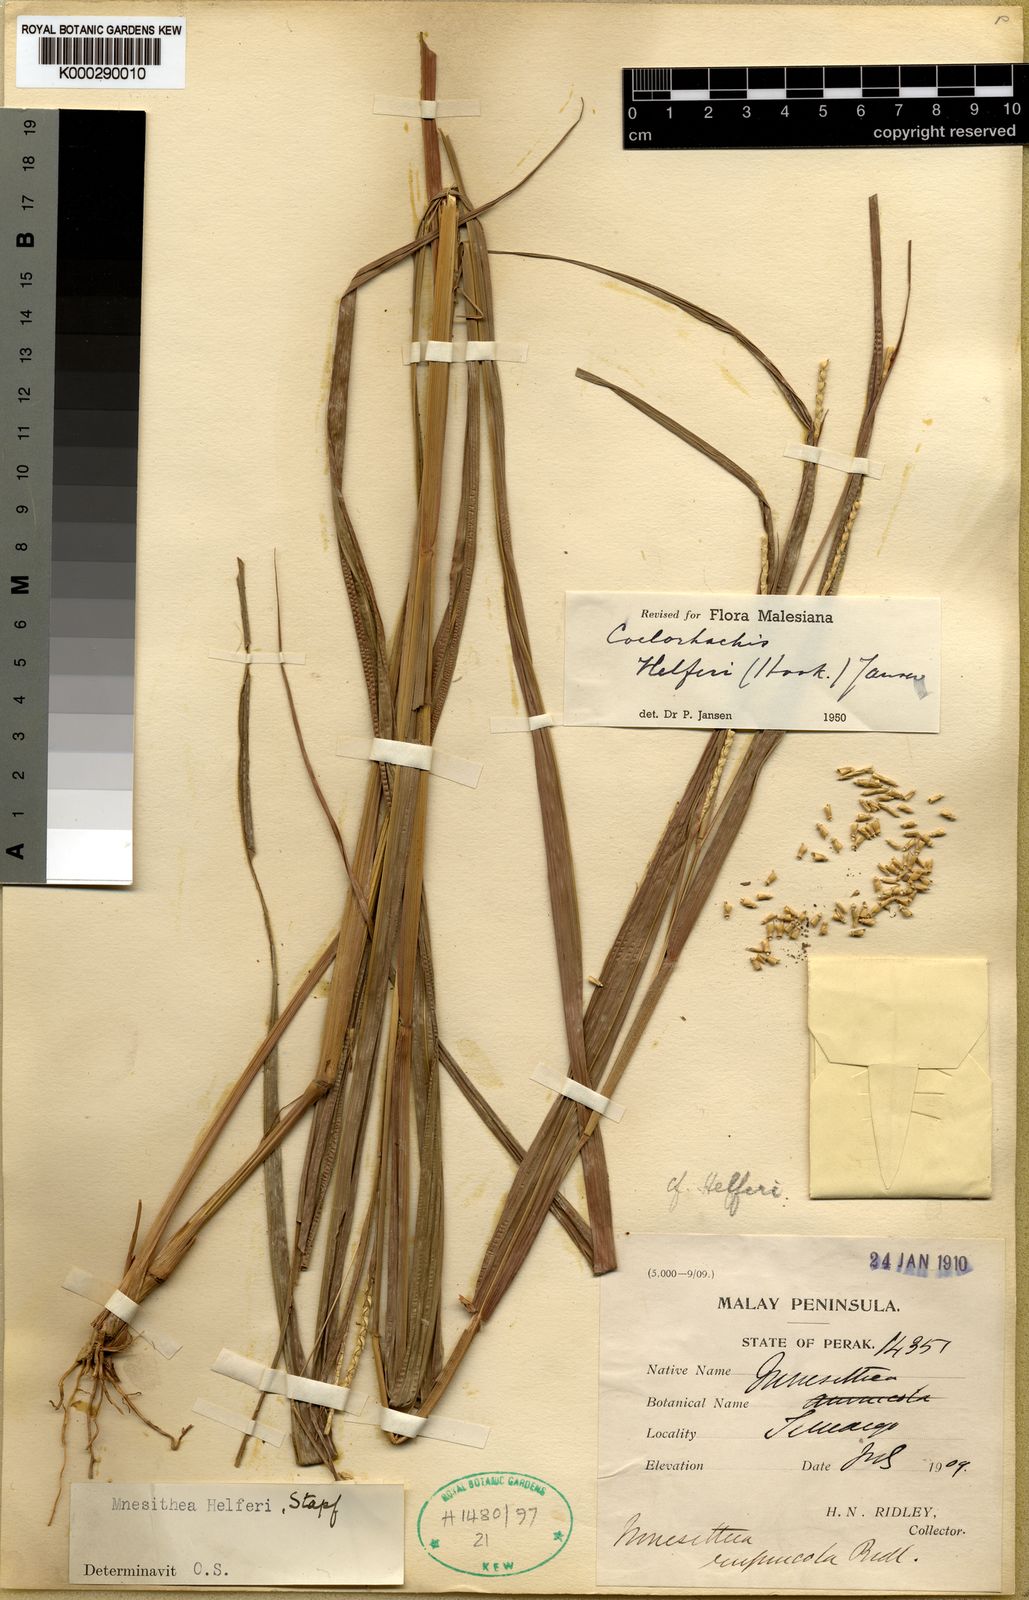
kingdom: Plantae
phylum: Tracheophyta
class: Liliopsida
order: Poales
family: Poaceae
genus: Rottboellia
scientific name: Rottboellia helferi
